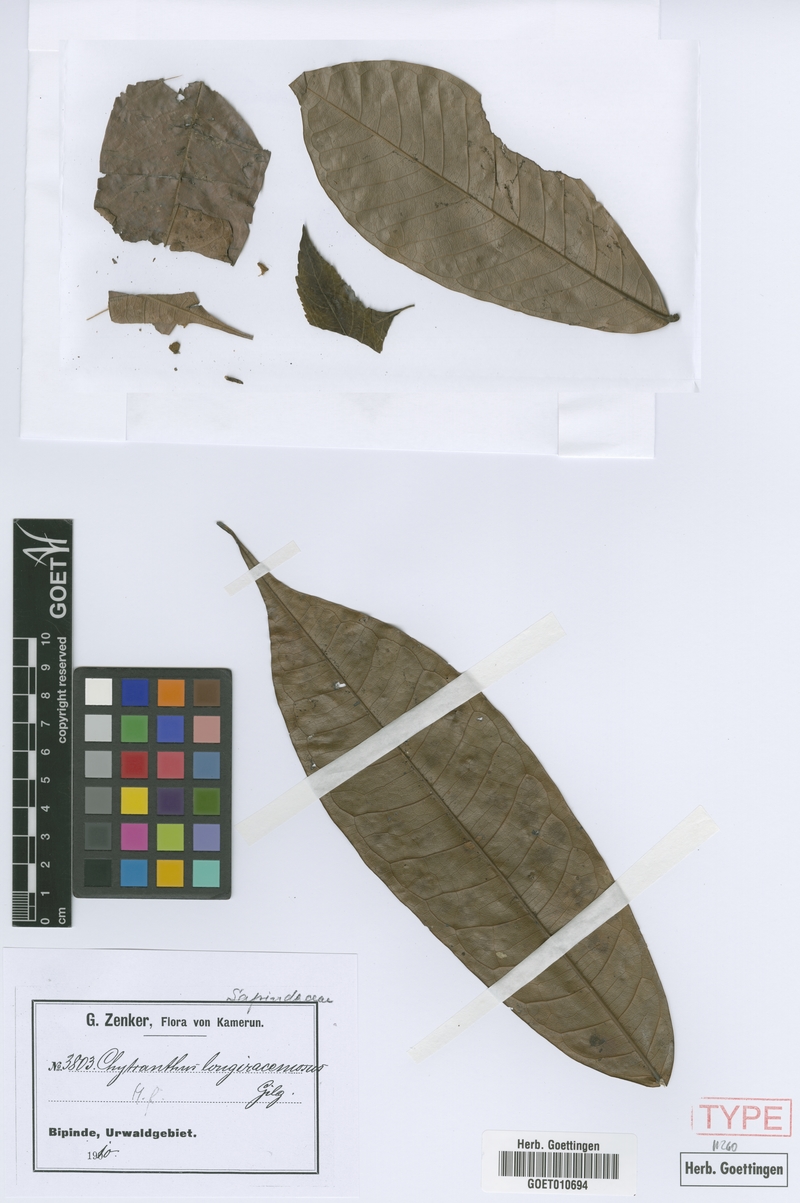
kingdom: Plantae
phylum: Tracheophyta
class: Magnoliopsida
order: Sapindales
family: Sapindaceae
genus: Chytranthus
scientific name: Chytranthus carneus
